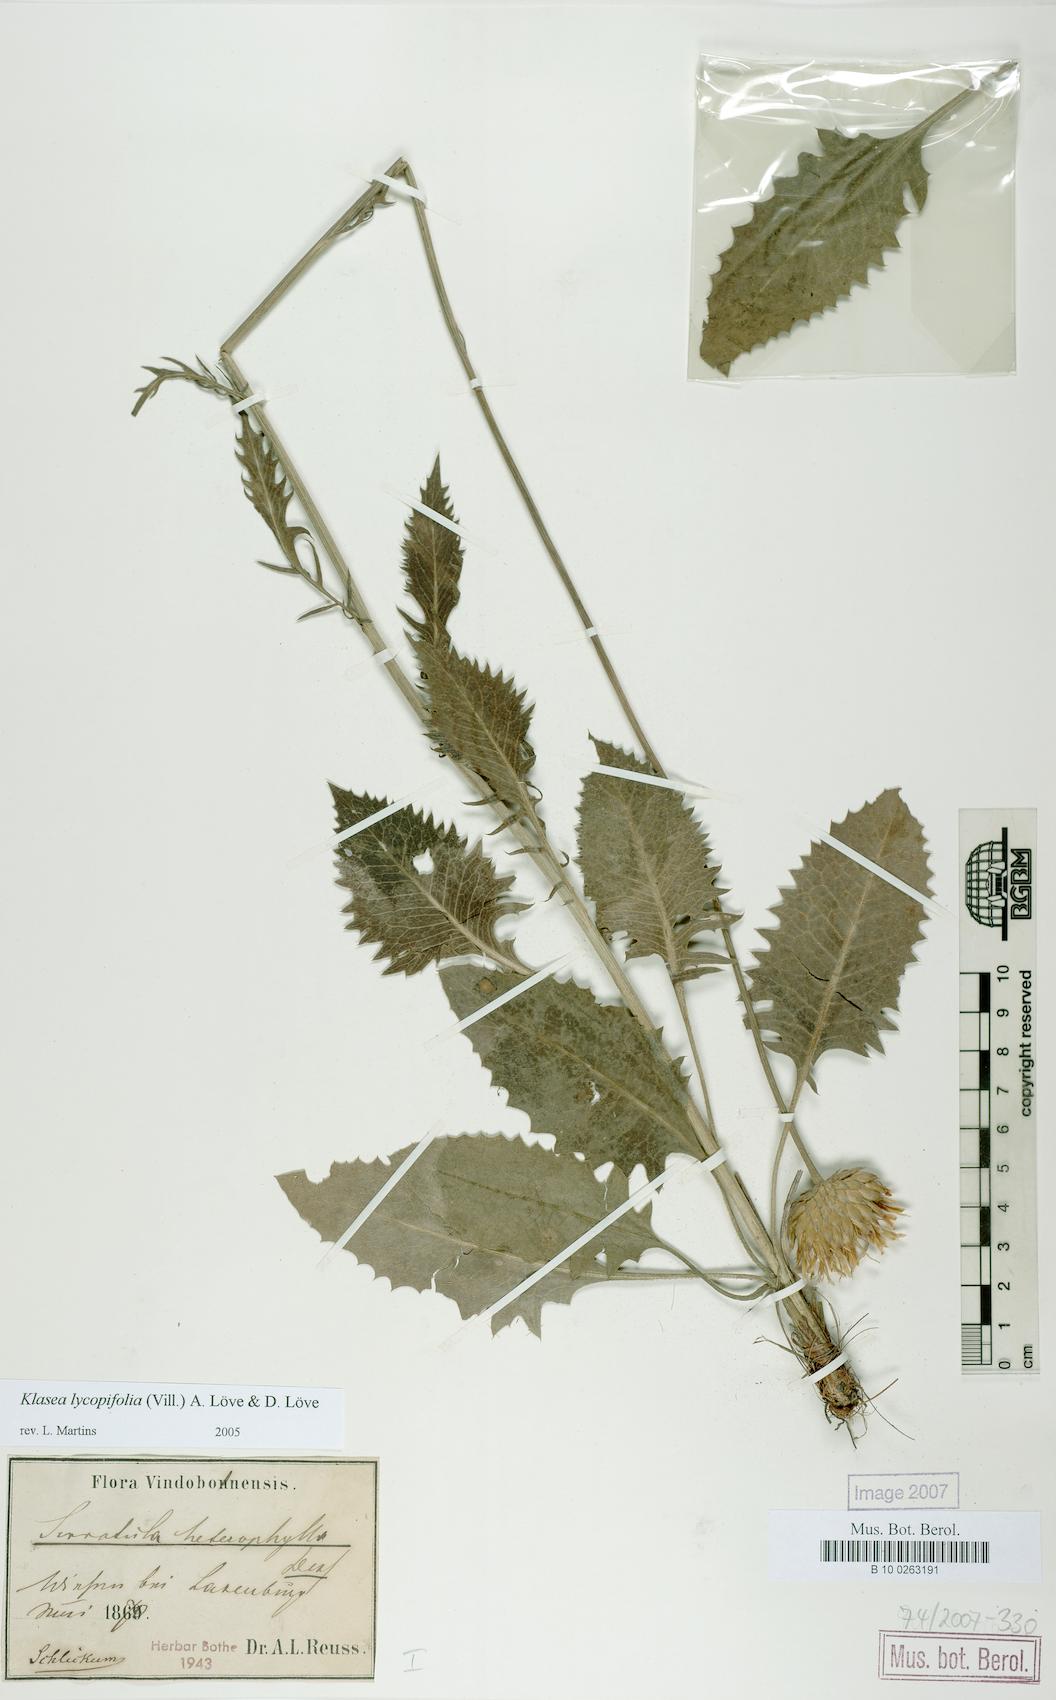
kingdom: Plantae
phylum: Tracheophyta
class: Magnoliopsida
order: Asterales
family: Asteraceae
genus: Klasea
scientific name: Klasea lycopifolia
